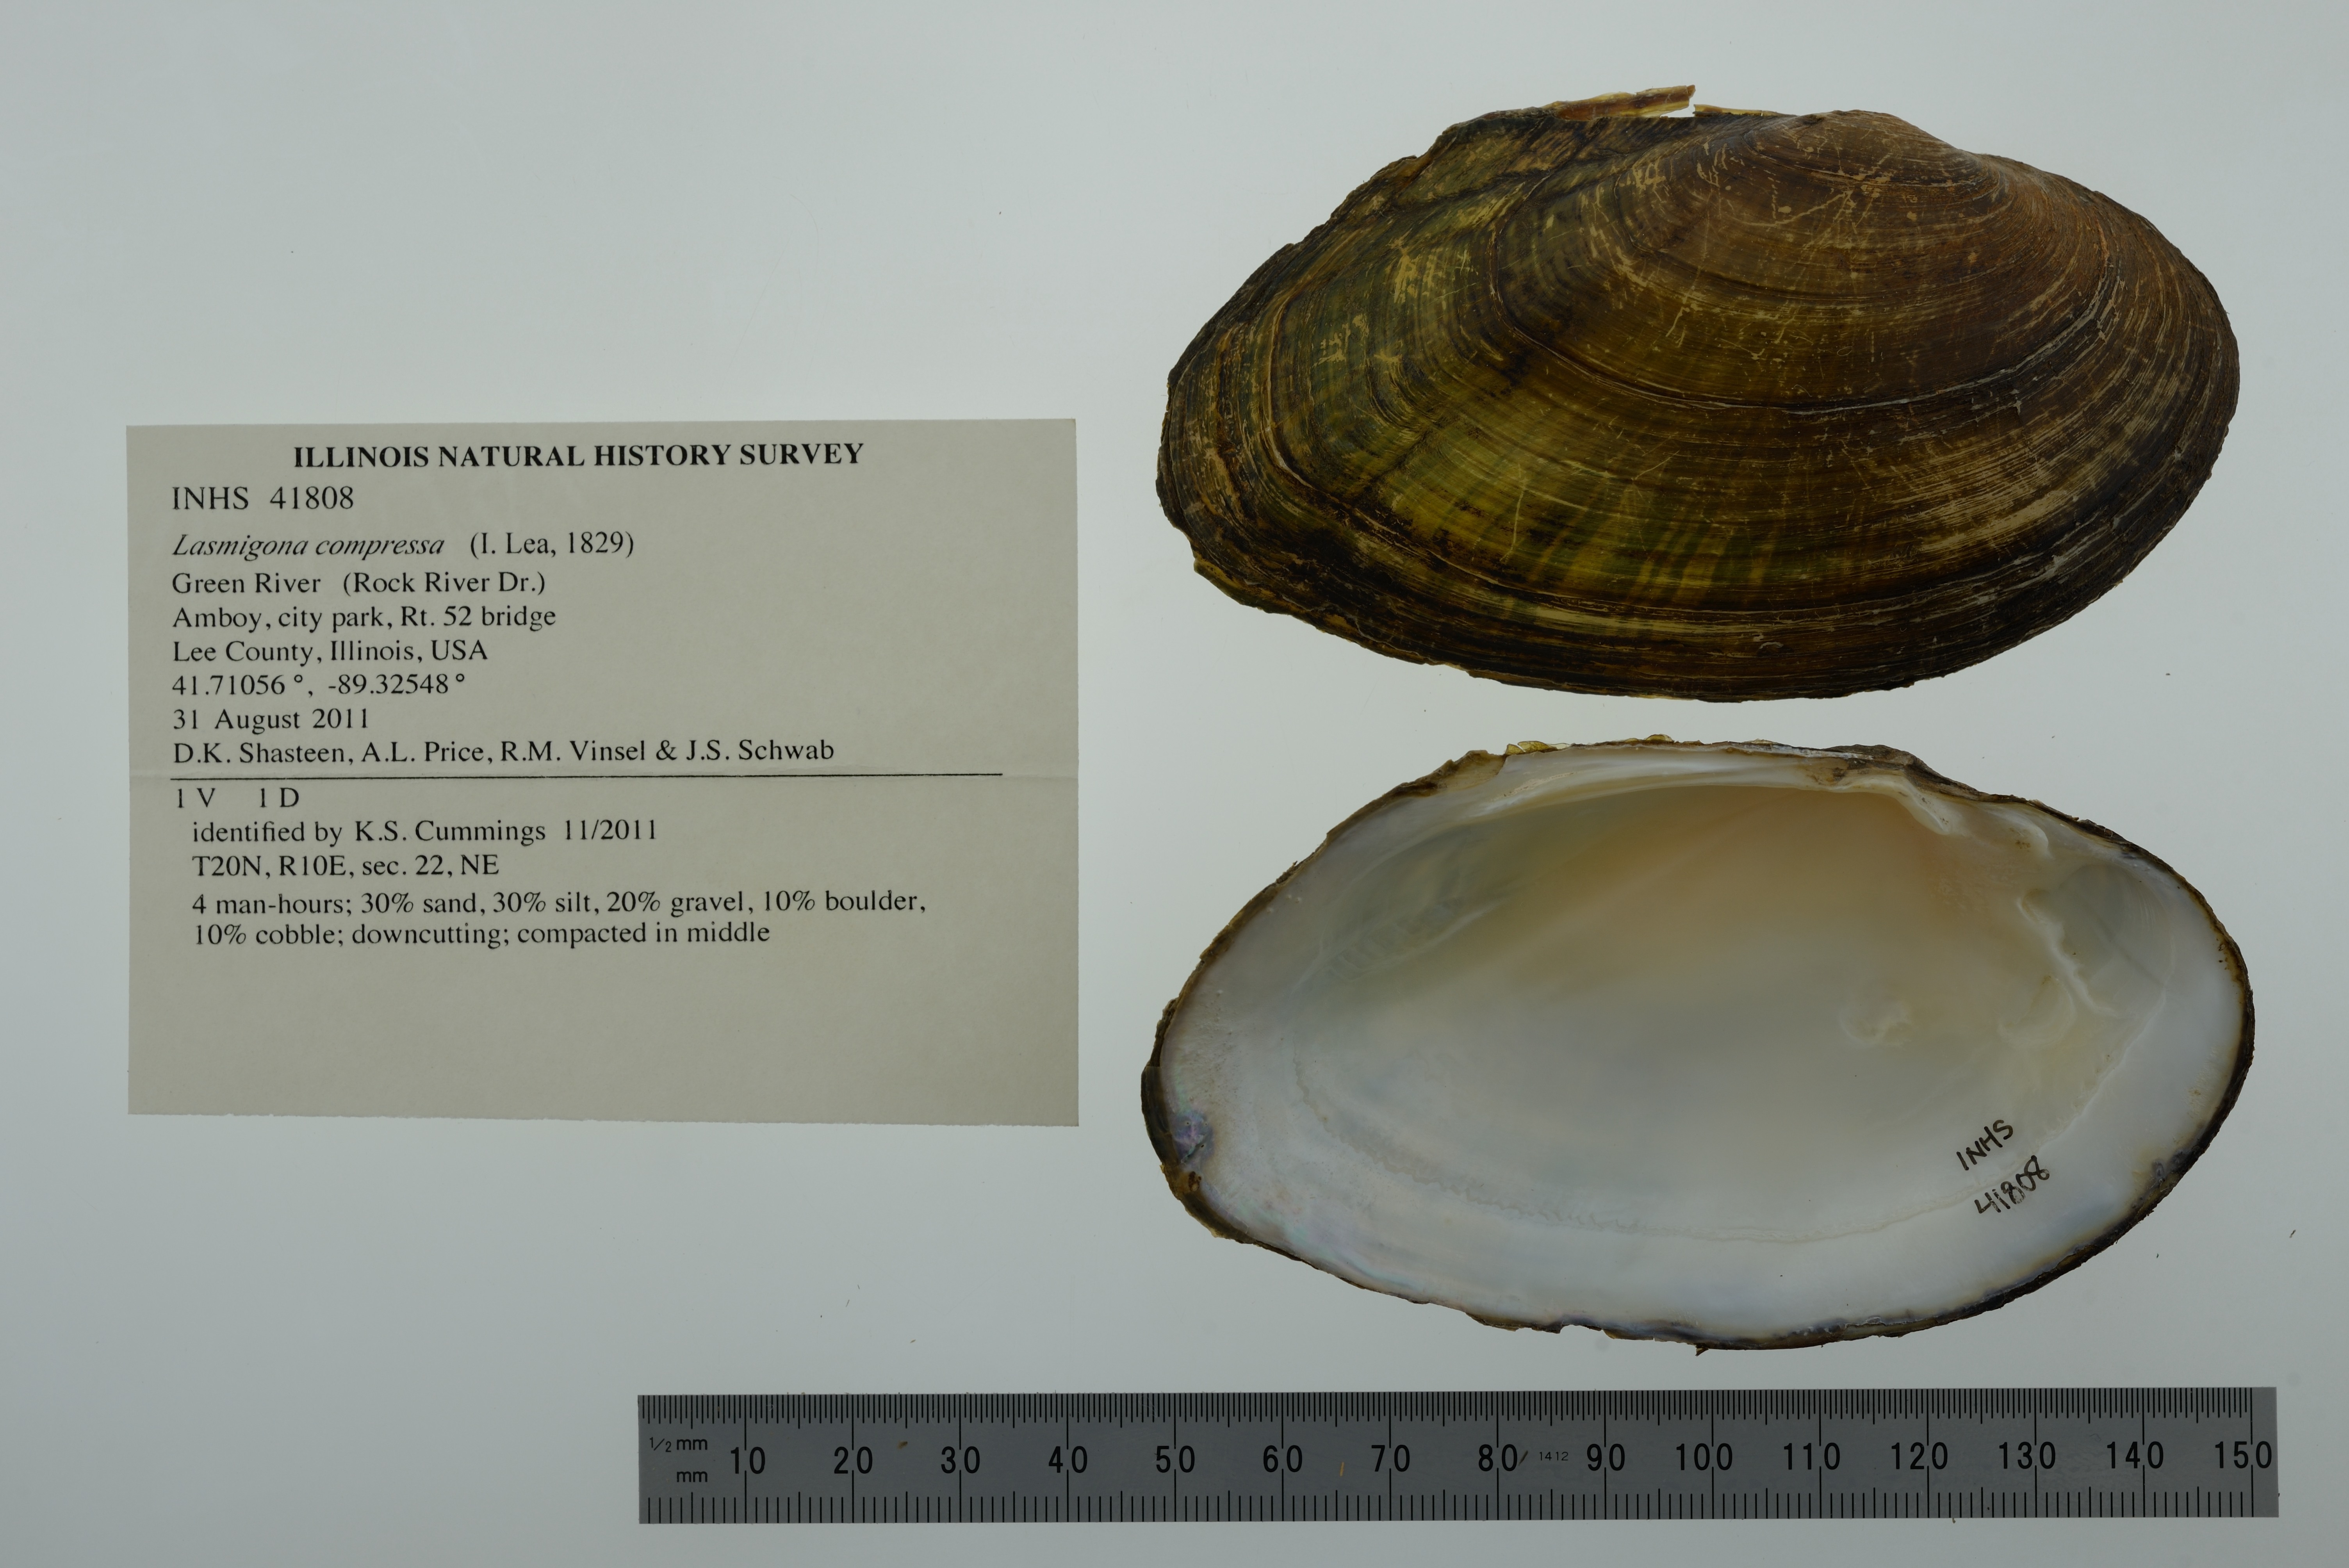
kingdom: Animalia
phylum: Mollusca
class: Bivalvia
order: Unionida
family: Unionidae
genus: Lasmigona
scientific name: Lasmigona compressa
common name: Creek heelsplitter
